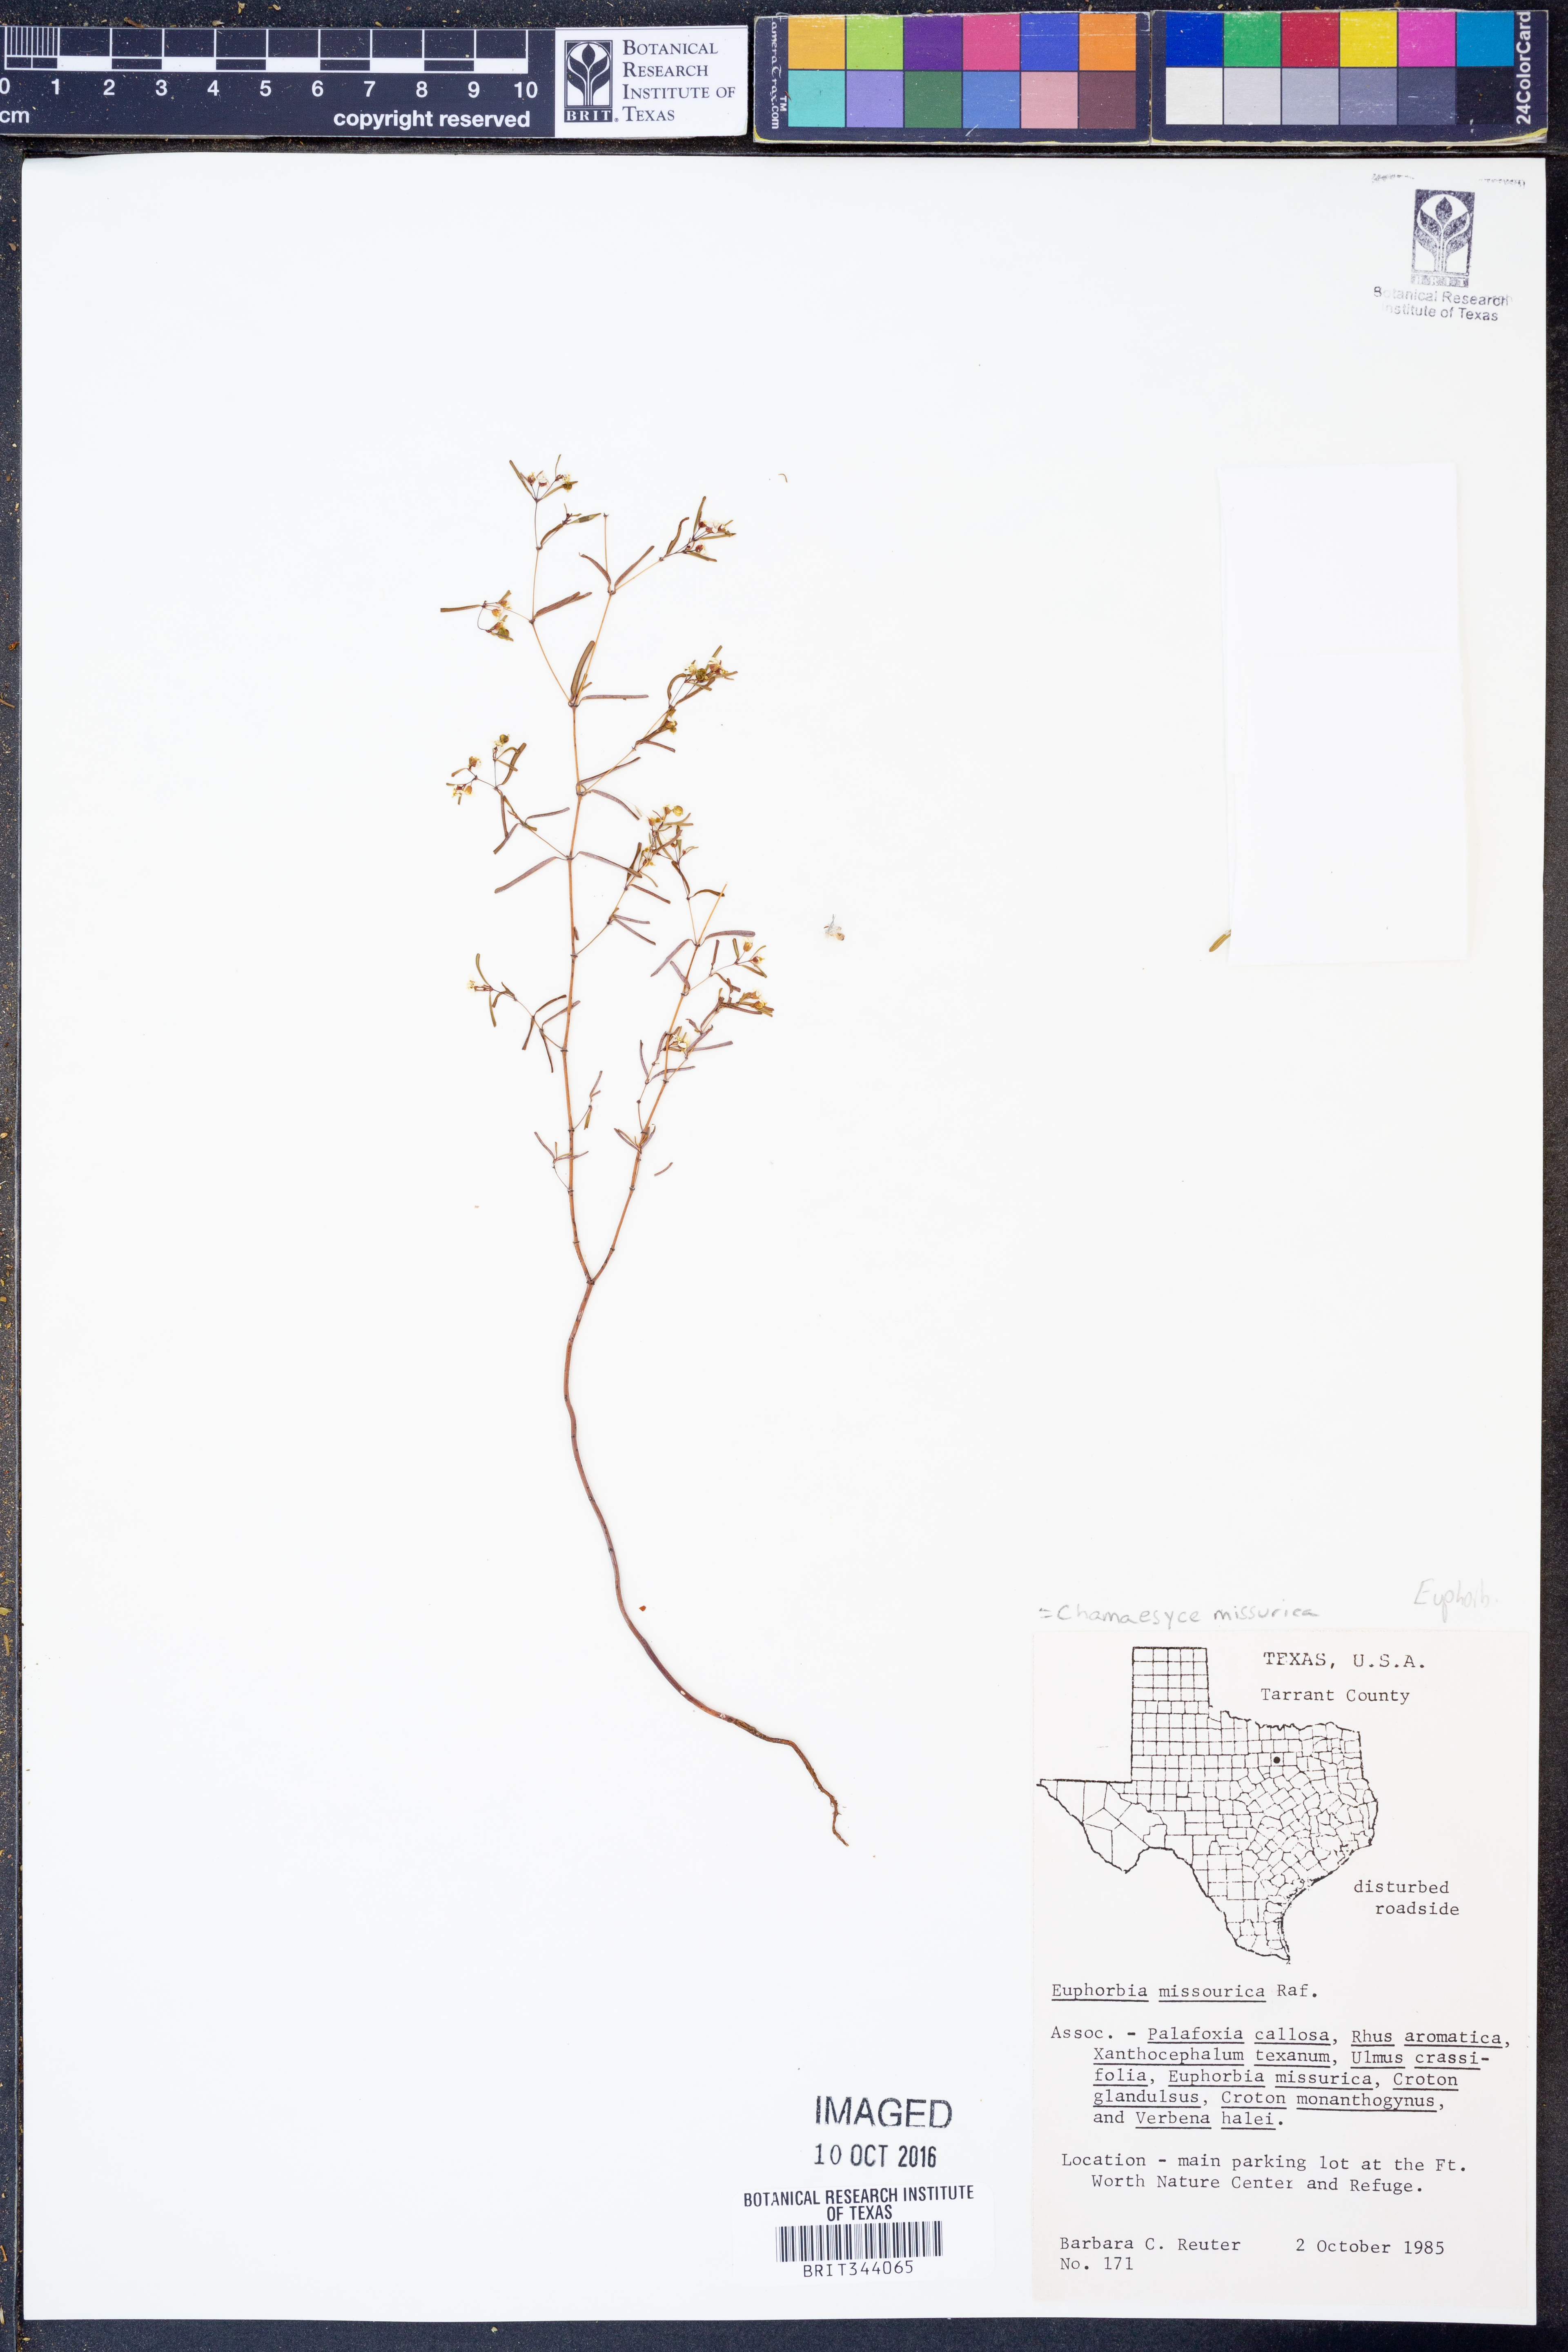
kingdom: Plantae
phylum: Tracheophyta
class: Magnoliopsida
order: Malpighiales
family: Euphorbiaceae
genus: Euphorbia
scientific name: Euphorbia missurica
